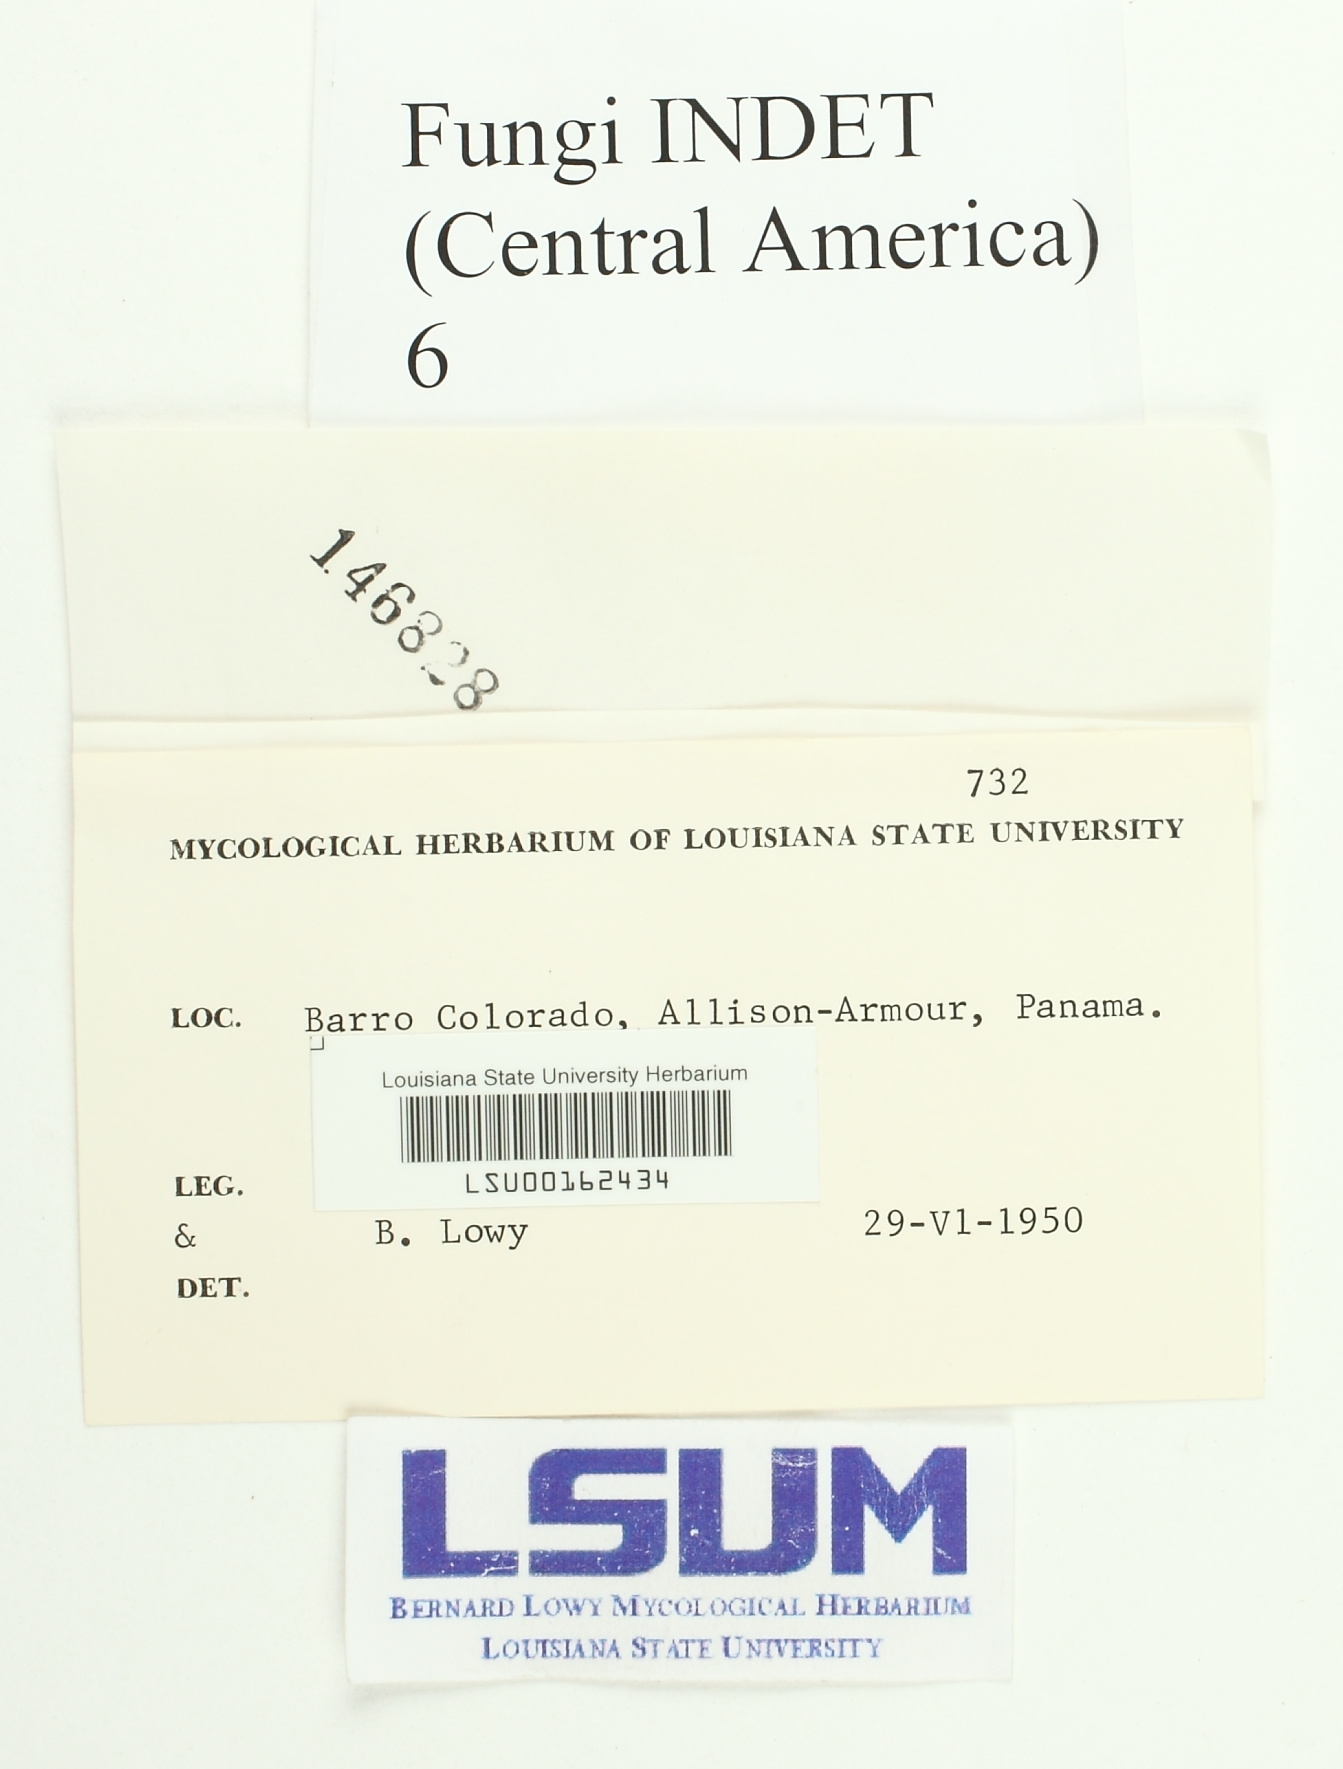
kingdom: Fungi
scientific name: Fungi
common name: Fungi
